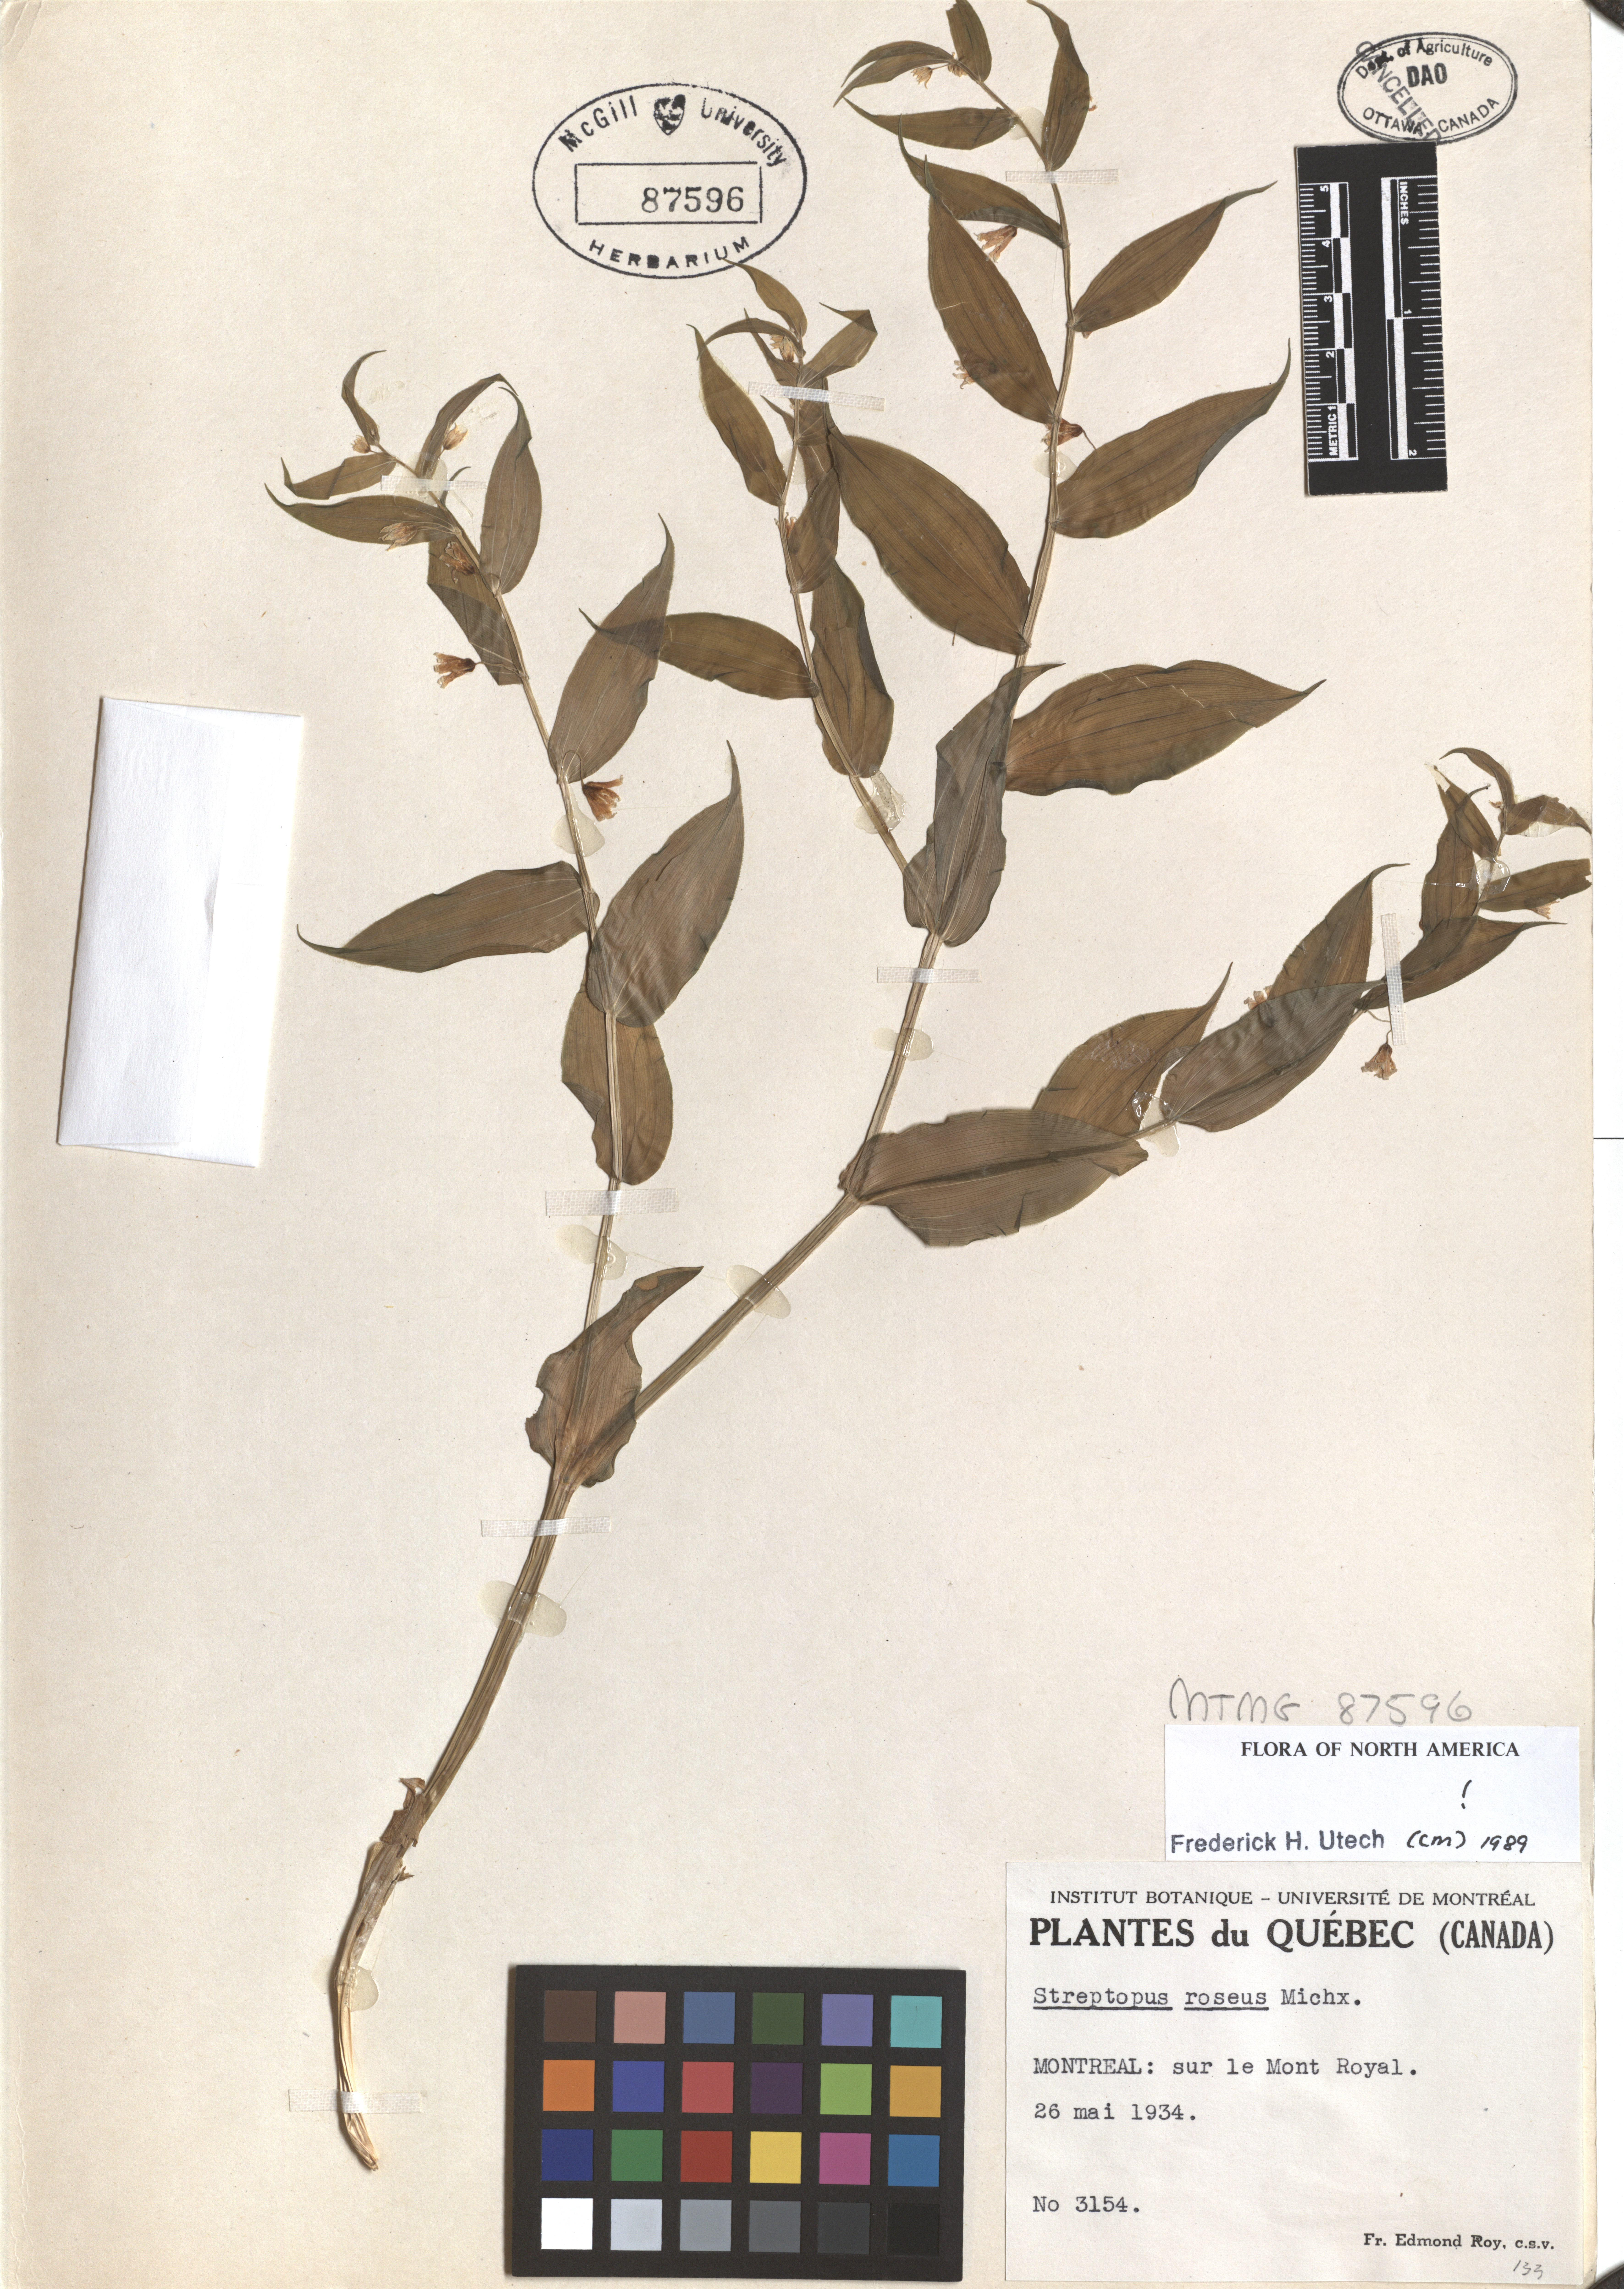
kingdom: Plantae
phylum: Tracheophyta
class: Liliopsida
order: Liliales
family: Liliaceae
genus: Streptopus
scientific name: Streptopus lanceolatus
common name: Rose mandarin
